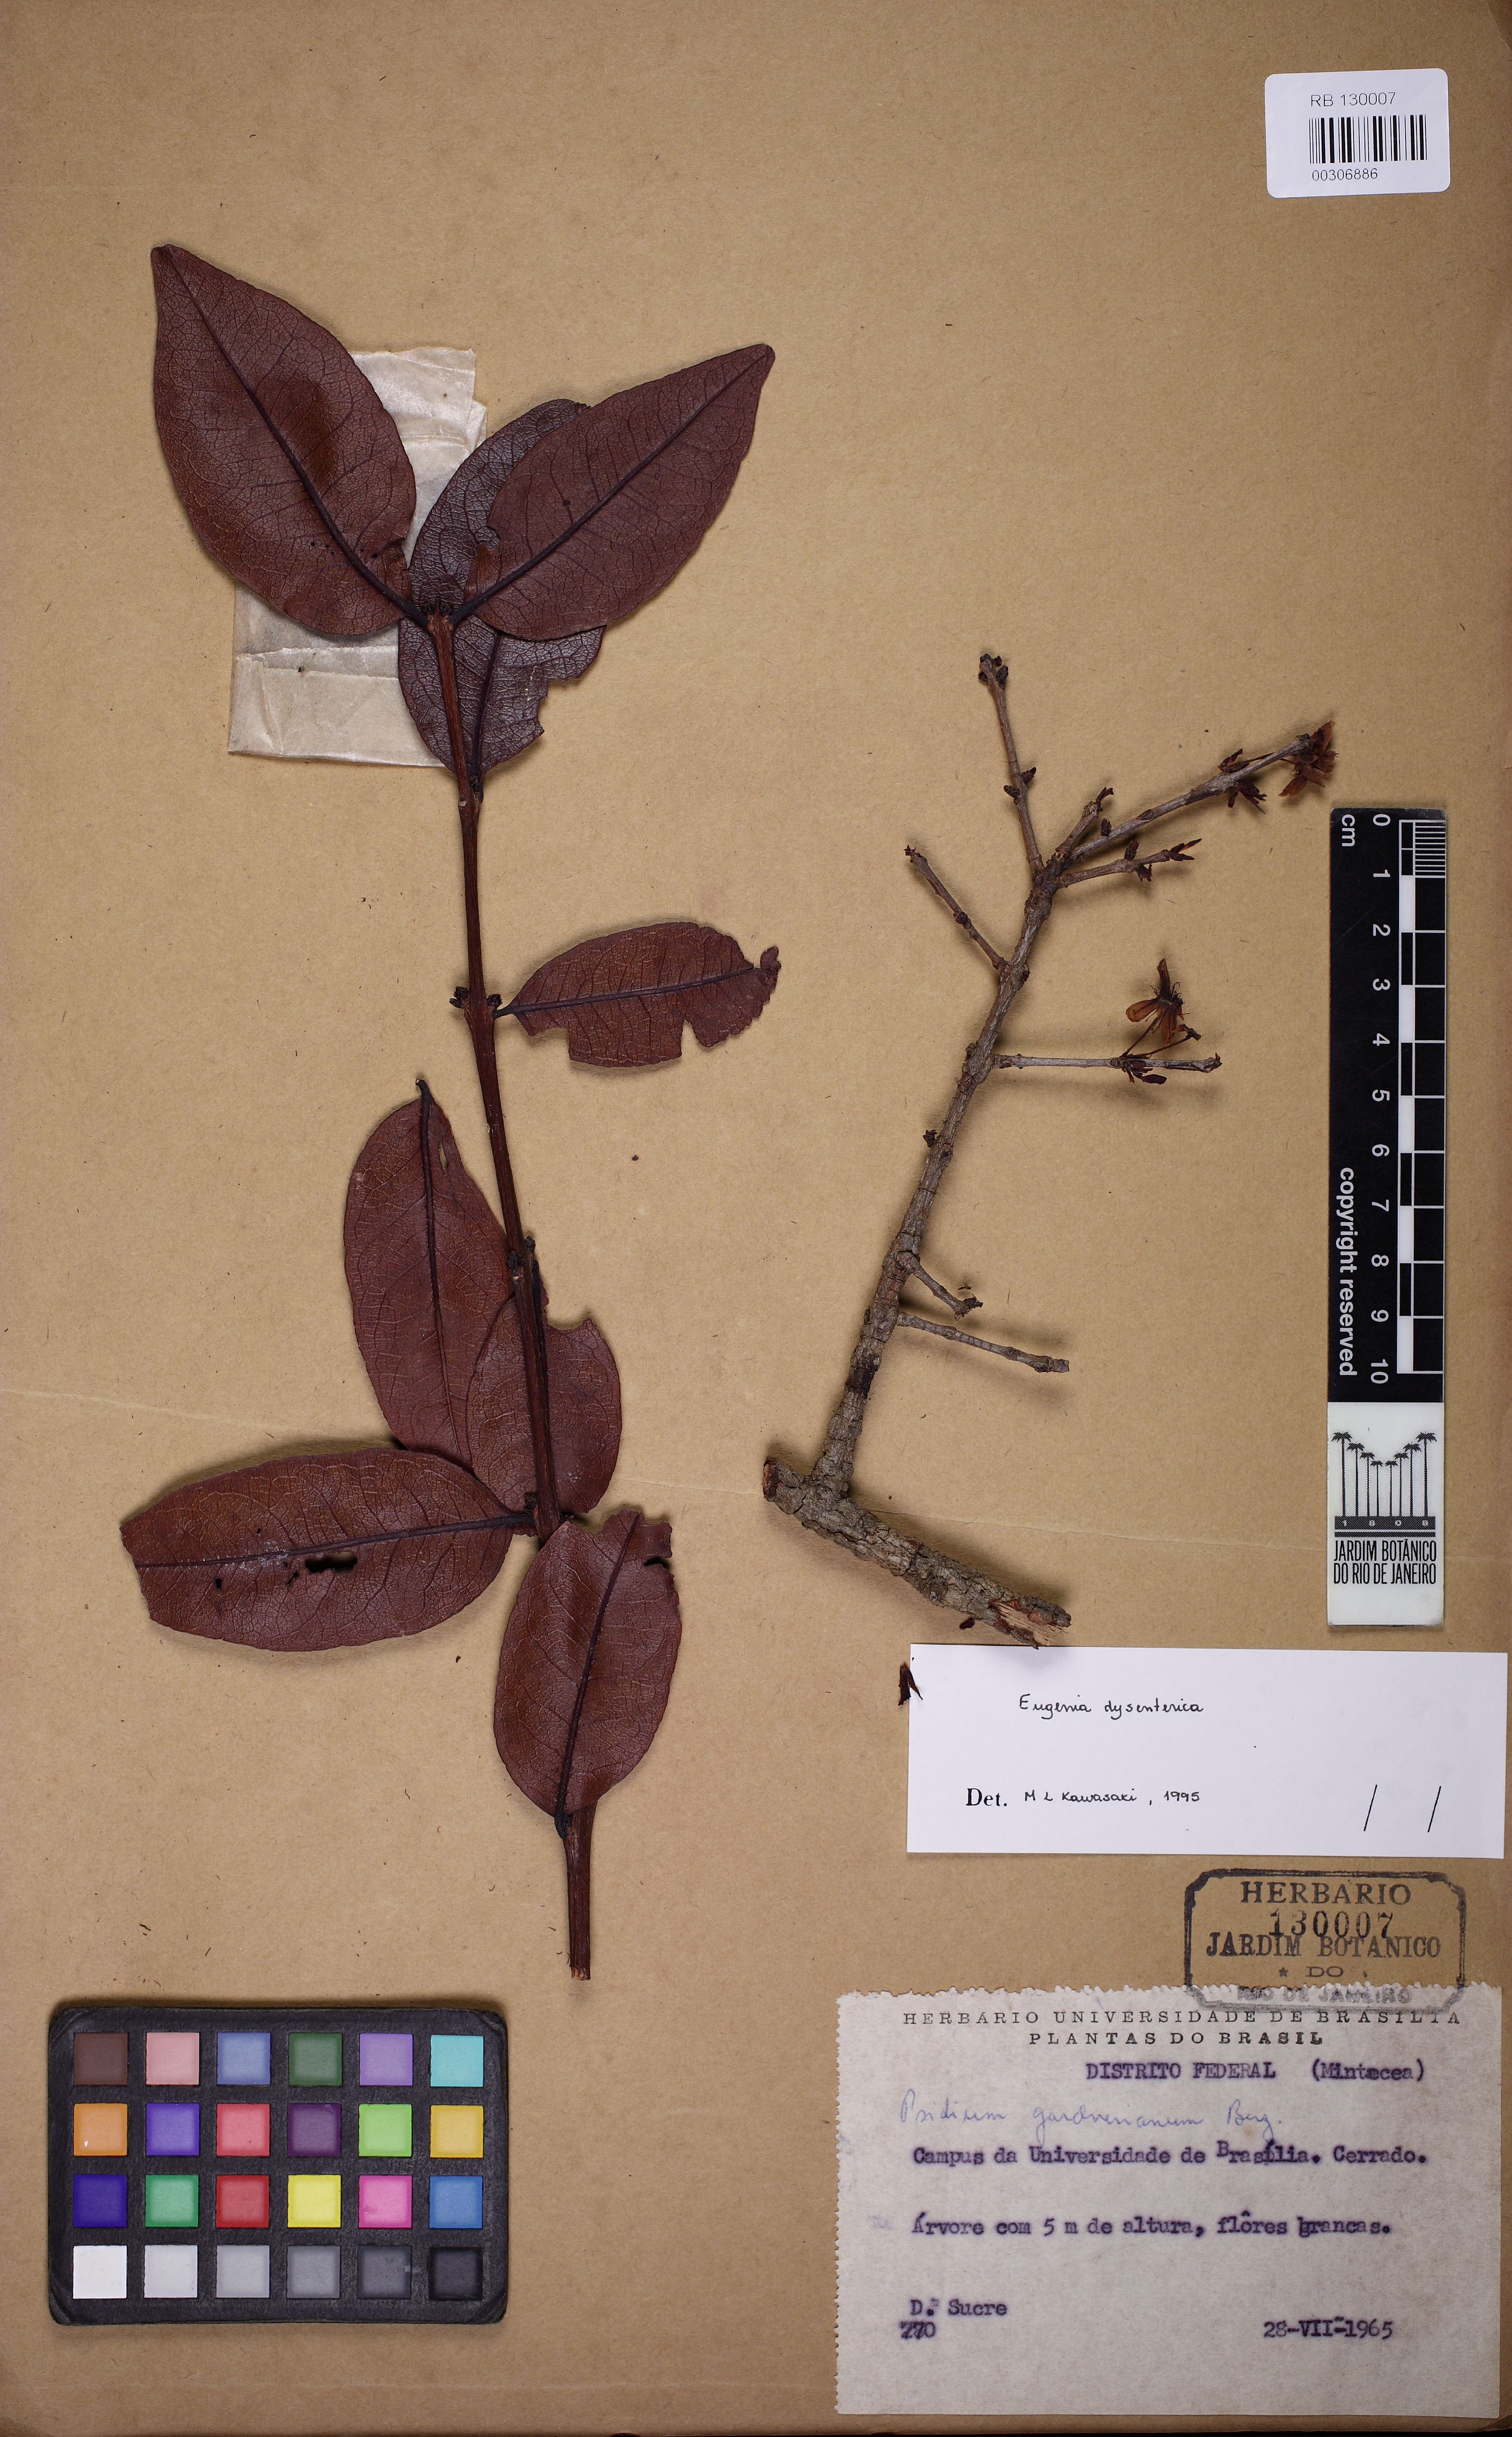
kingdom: Plantae
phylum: Tracheophyta
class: Magnoliopsida
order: Myrtales
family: Myrtaceae
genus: Eugenia
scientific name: Eugenia dysenterica
